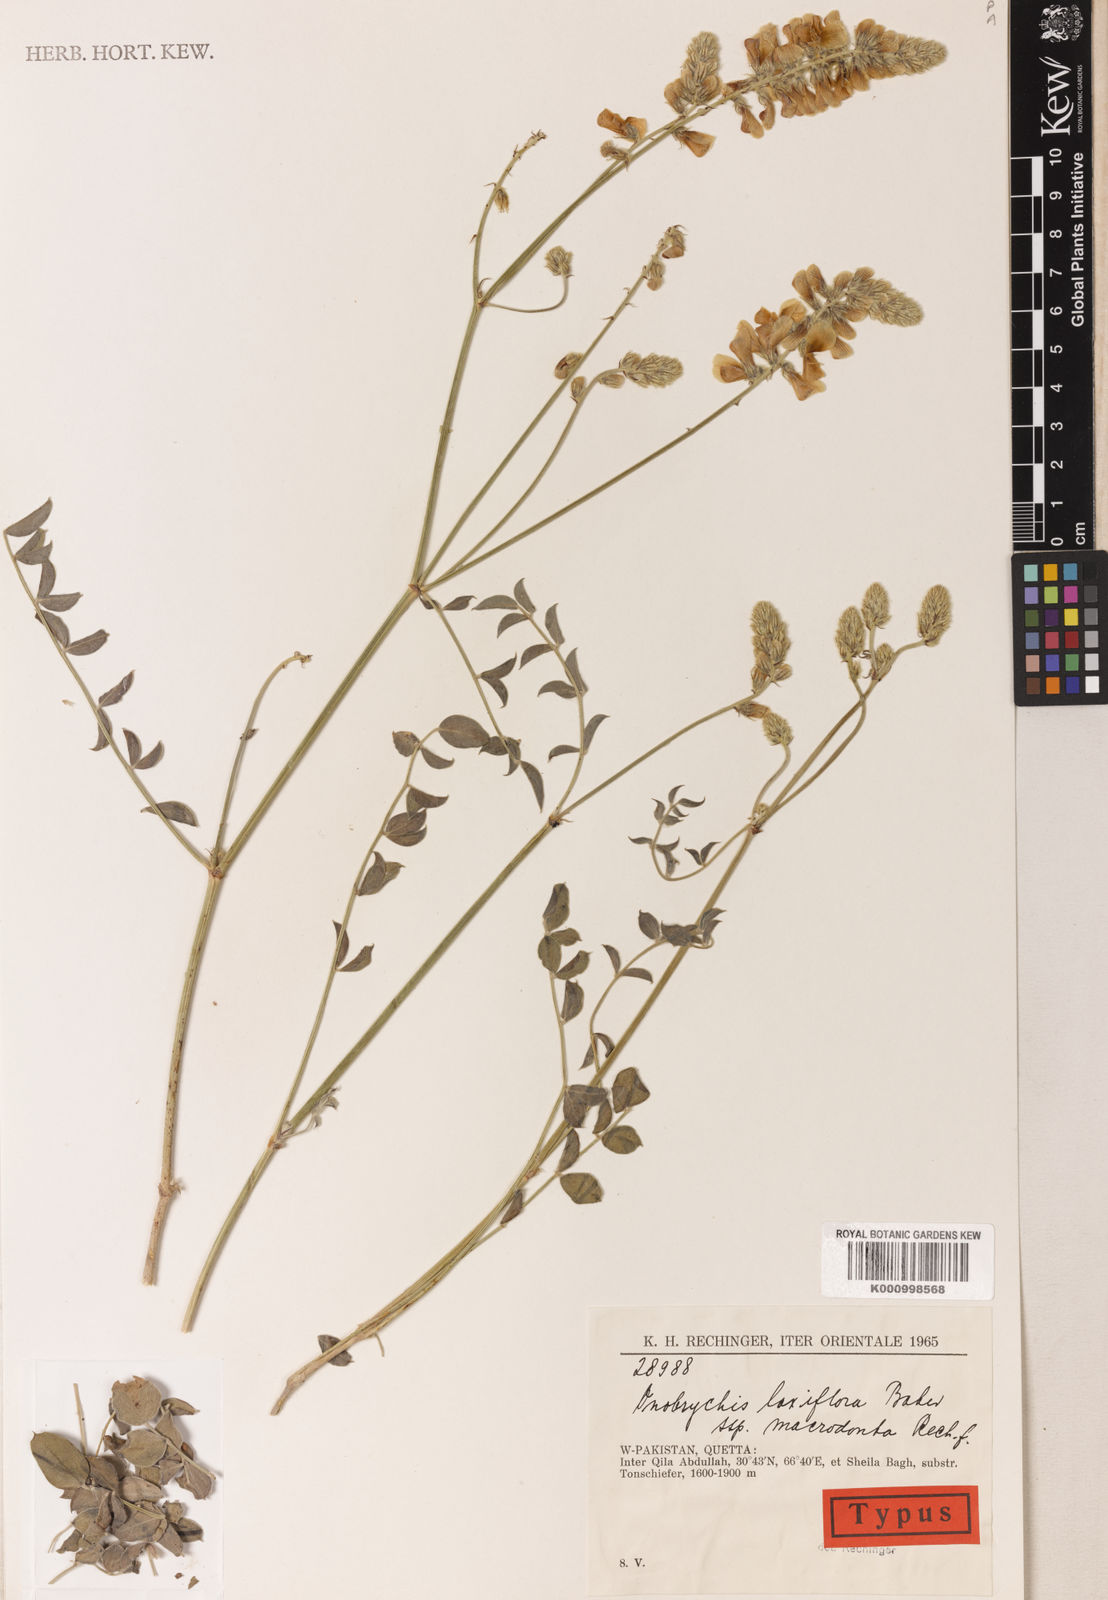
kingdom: Plantae
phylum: Tracheophyta
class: Magnoliopsida
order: Fabales
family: Fabaceae
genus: Onobrychis
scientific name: Onobrychis laxiflora
